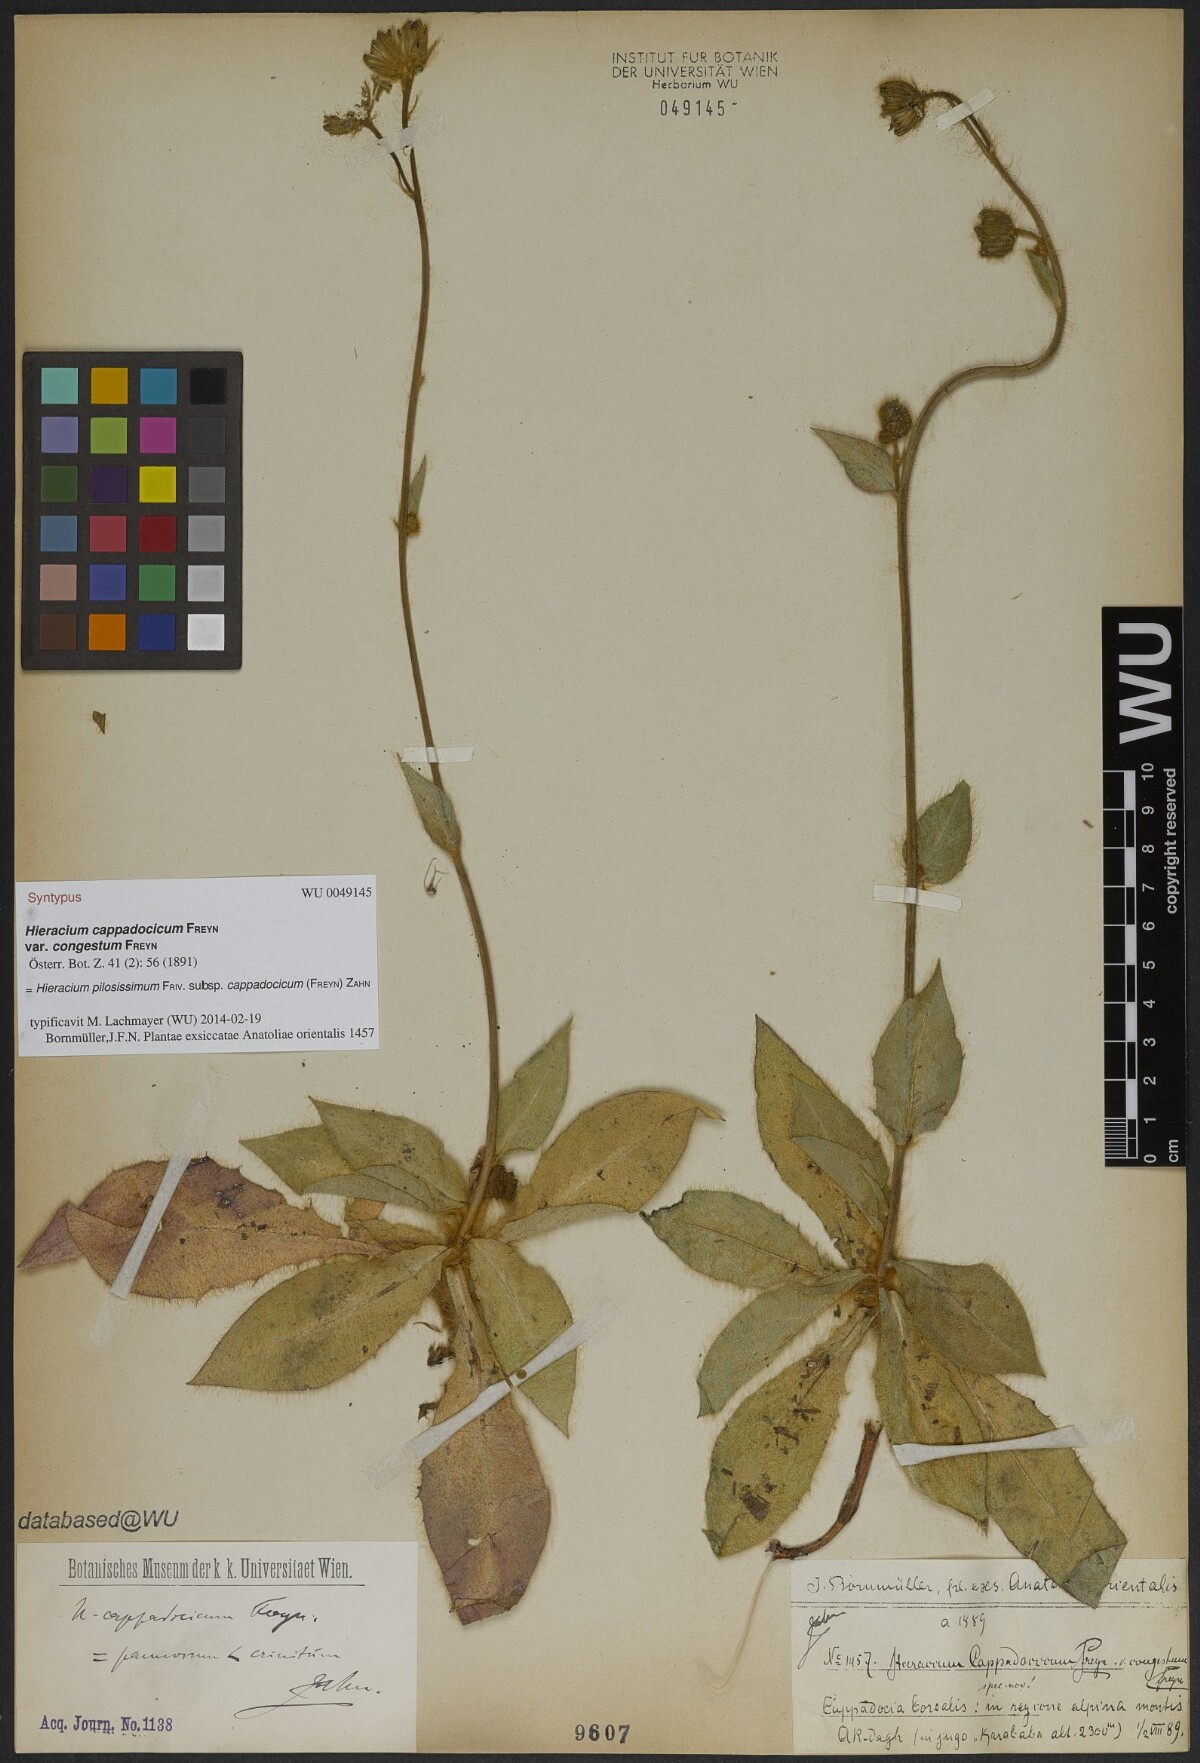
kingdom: Plantae
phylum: Tracheophyta
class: Magnoliopsida
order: Asterales
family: Asteraceae
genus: Hieracium
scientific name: Hieracium chalcidicum
